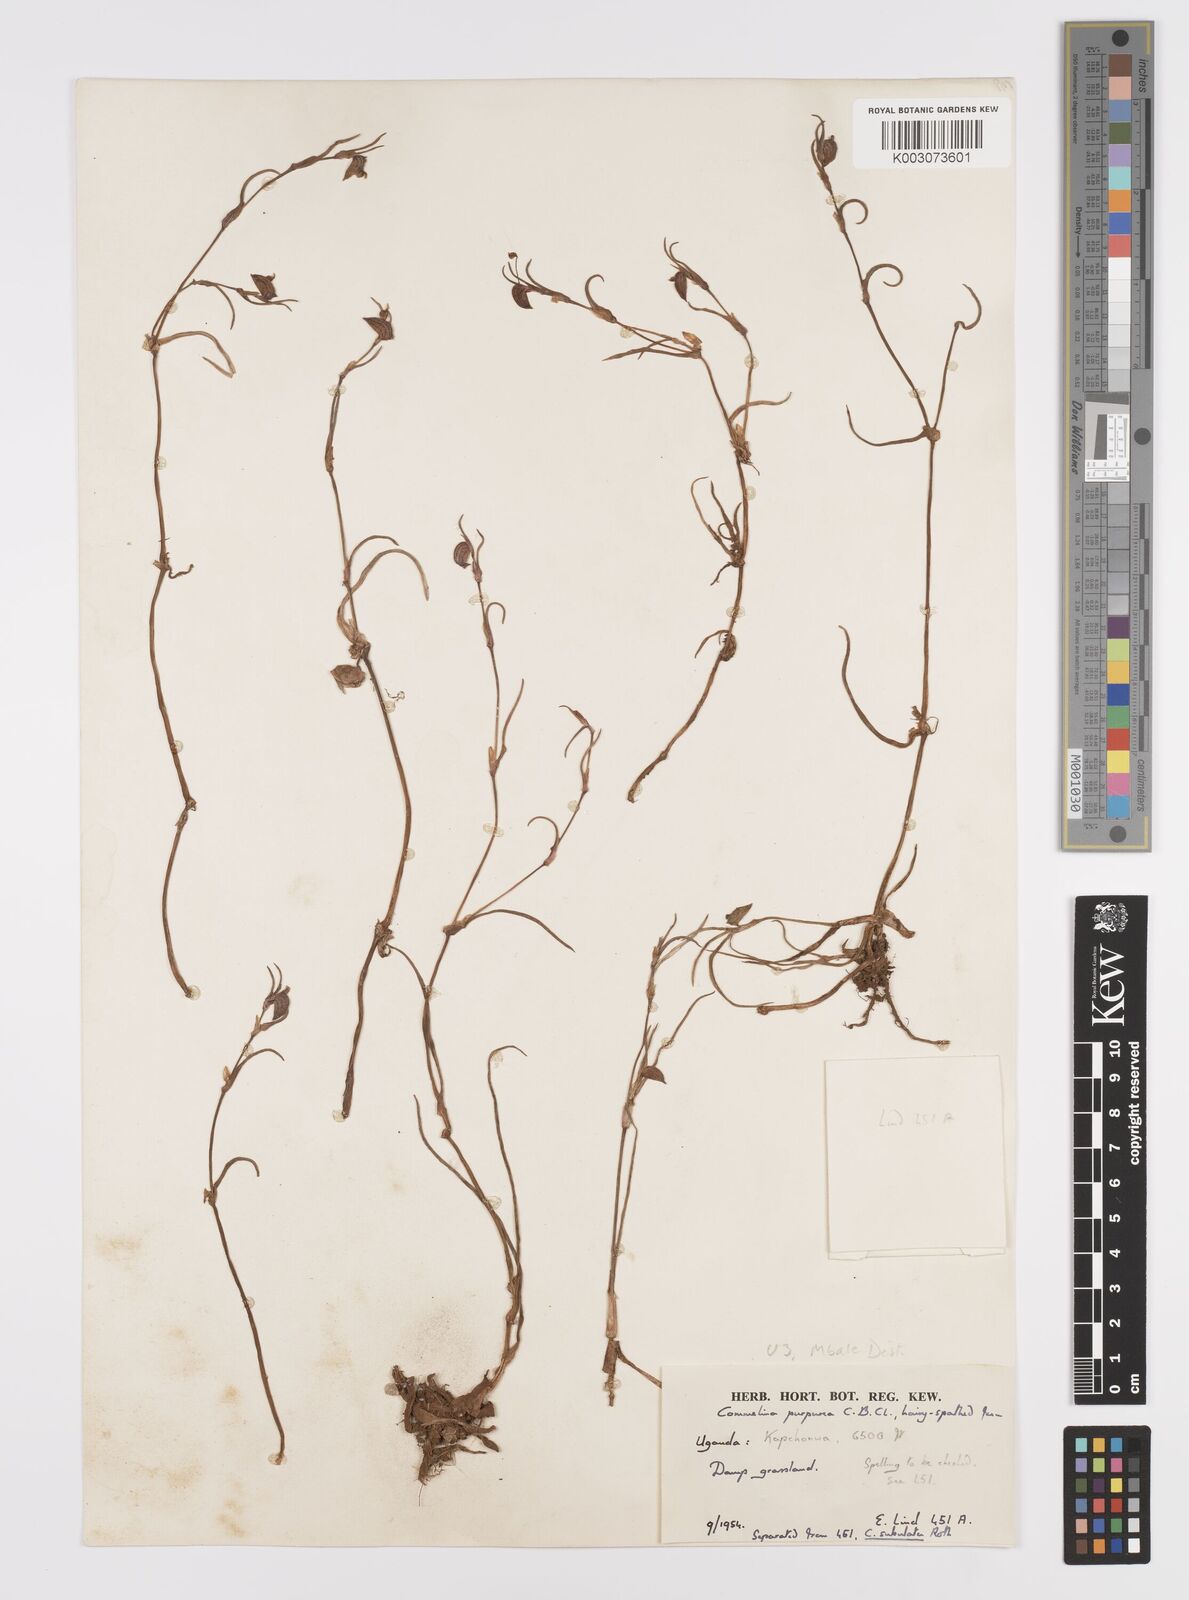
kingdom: Plantae
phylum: Tracheophyta
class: Liliopsida
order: Commelinales
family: Commelinaceae
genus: Commelina
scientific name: Commelina purpurea
